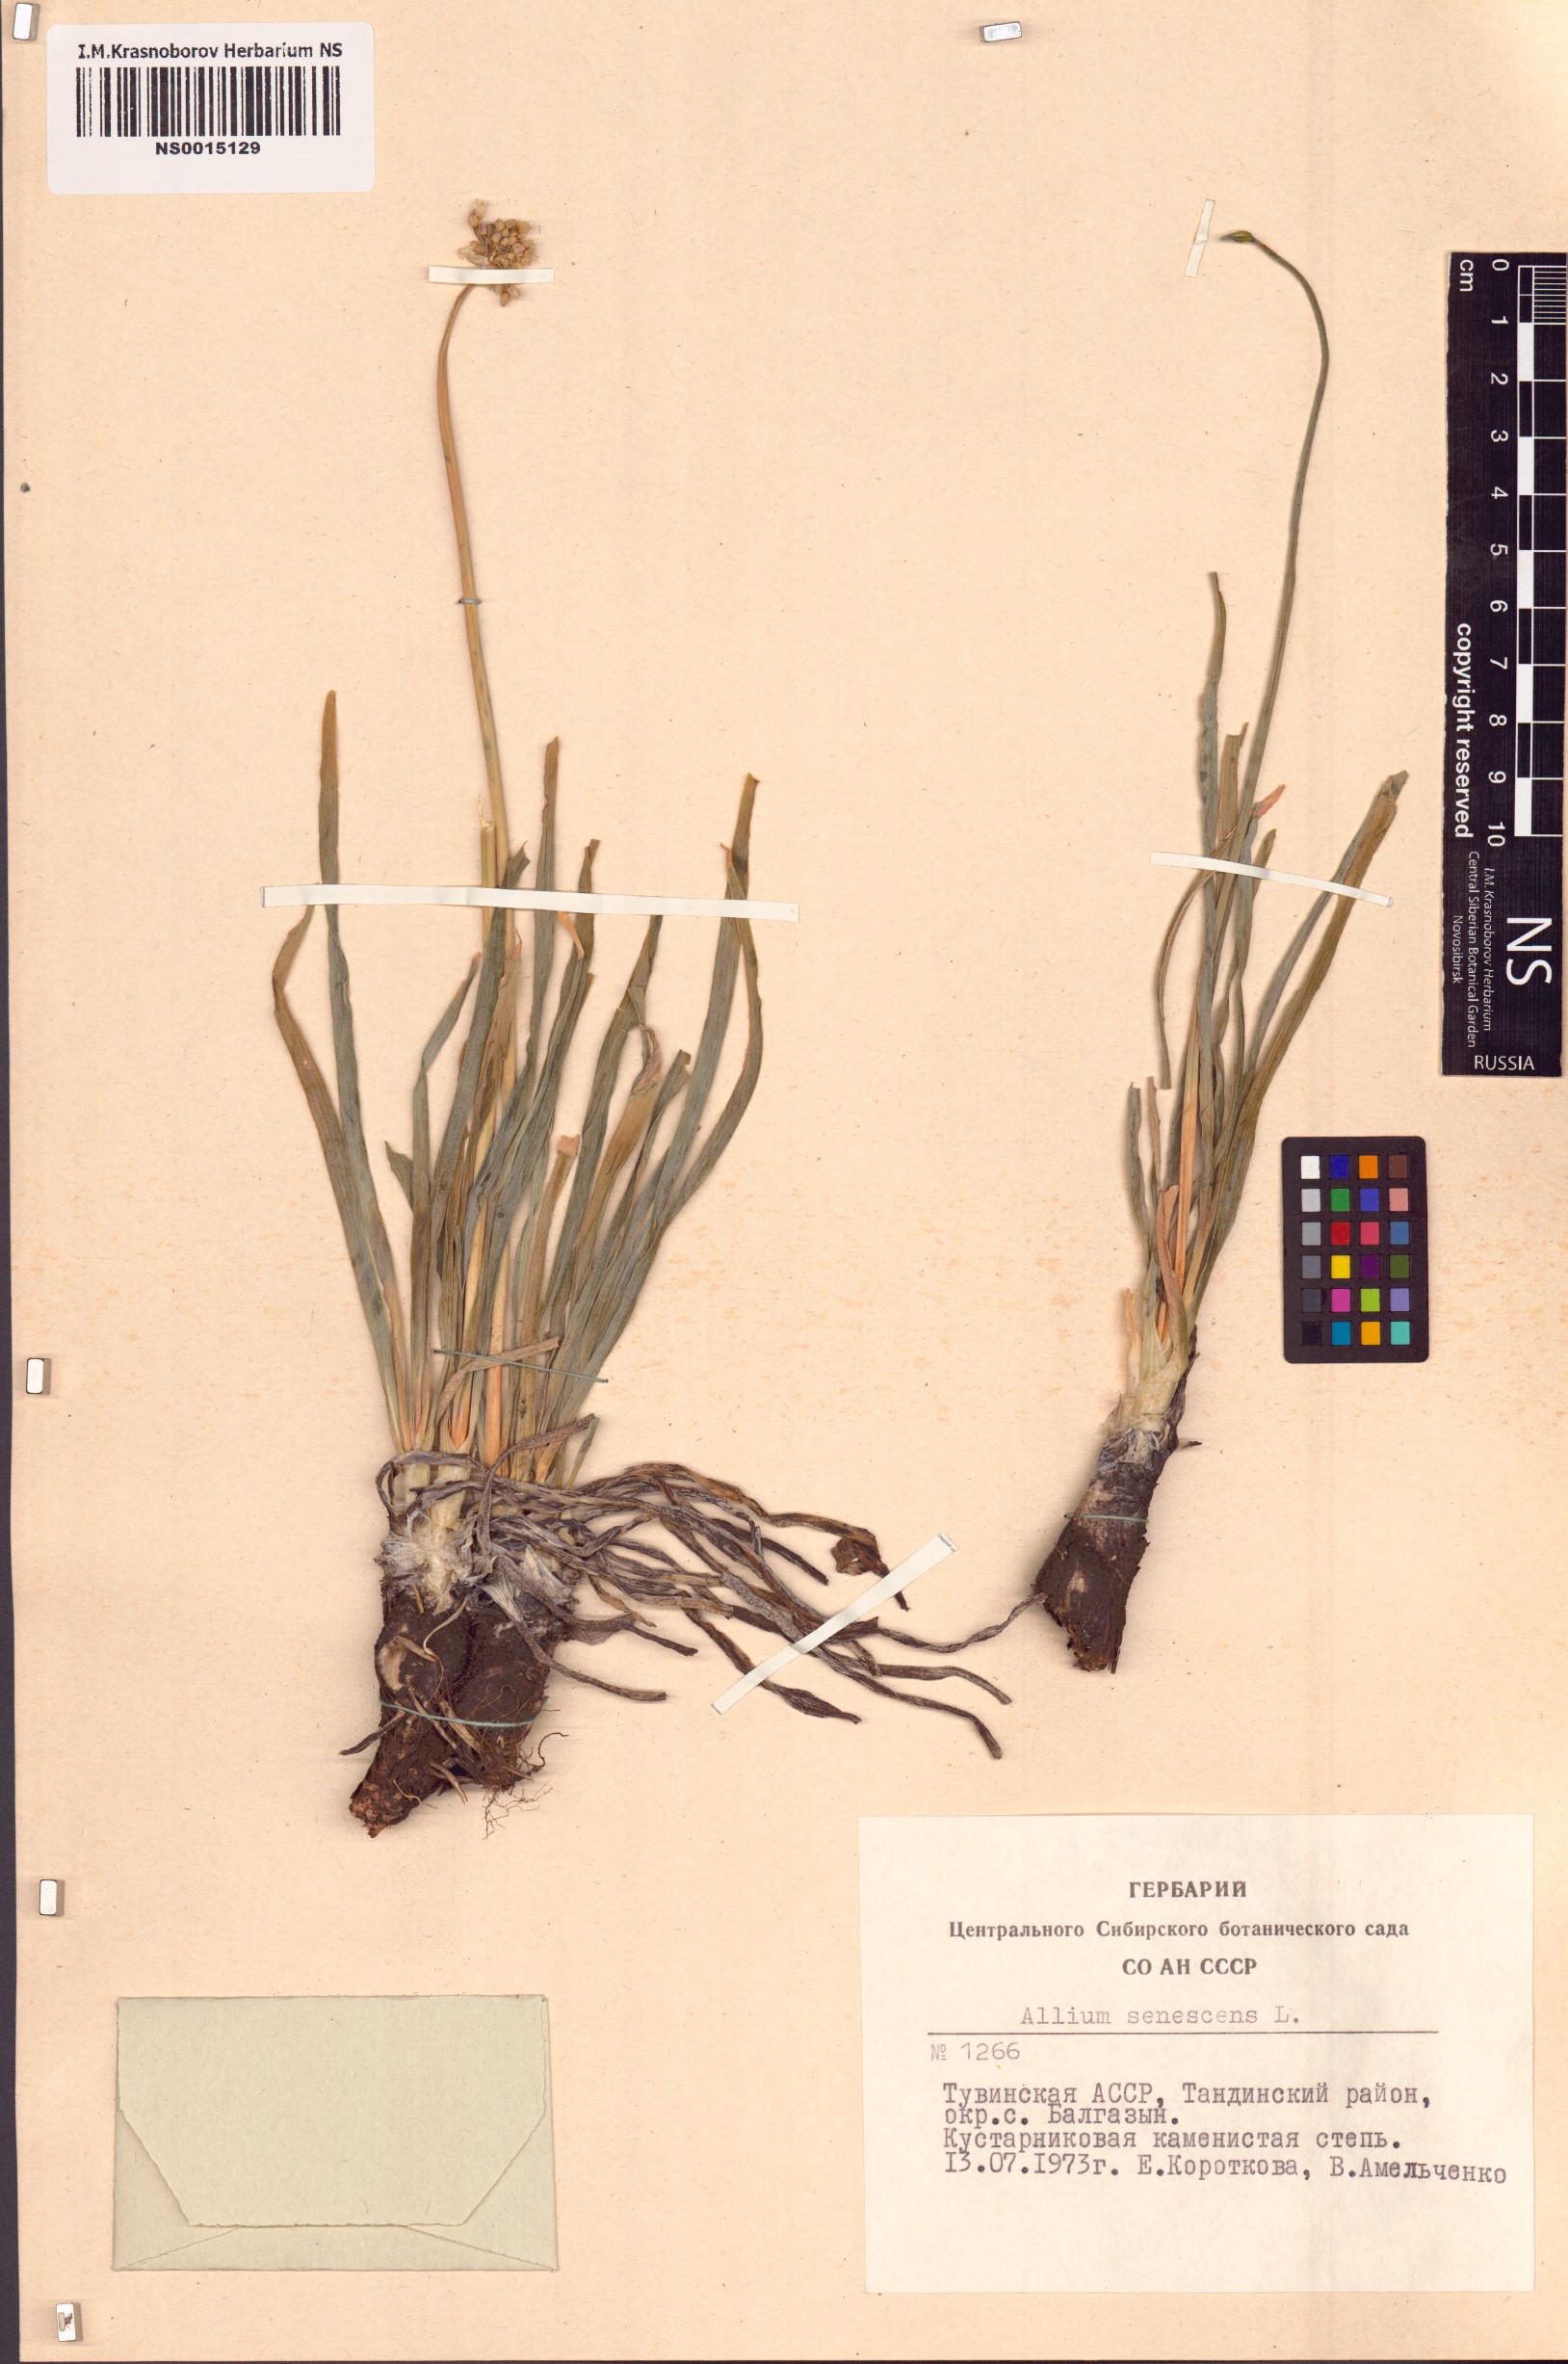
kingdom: Plantae
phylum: Tracheophyta
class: Liliopsida
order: Asparagales
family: Amaryllidaceae
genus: Allium
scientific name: Allium senescens
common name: German garlic
